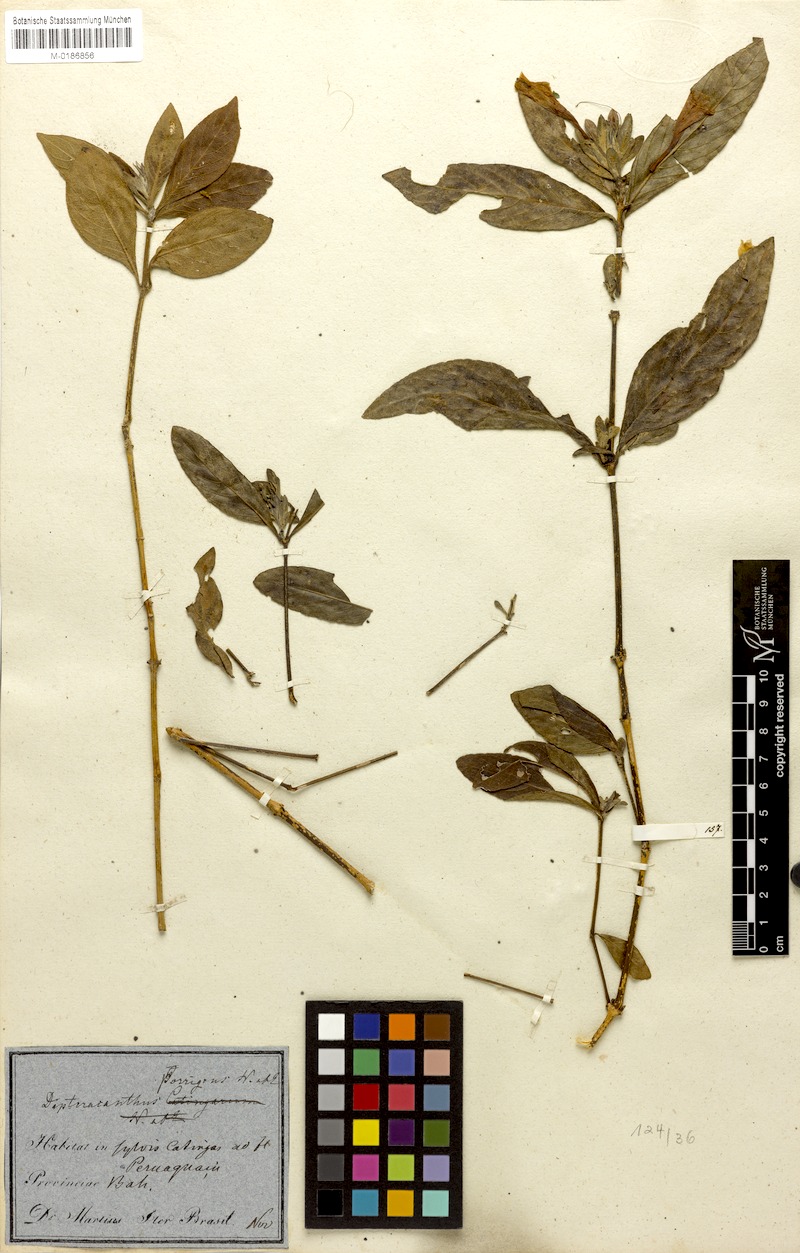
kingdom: Plantae
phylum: Tracheophyta
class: Magnoliopsida
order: Lamiales
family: Acanthaceae
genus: Ruellia
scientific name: Ruellia geminiflora
